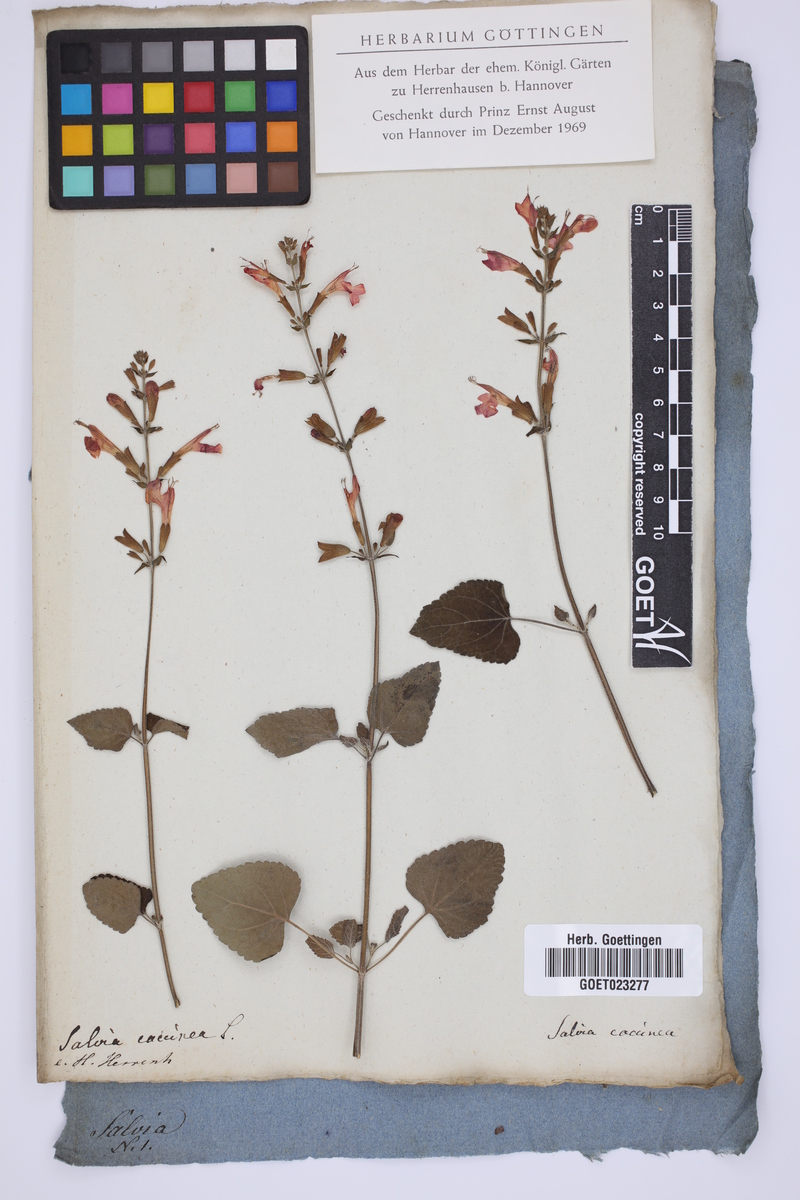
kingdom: Plantae
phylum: Tracheophyta
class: Magnoliopsida
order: Lamiales
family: Lamiaceae
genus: Salvia
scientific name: Salvia coccinea
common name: Blood sage
